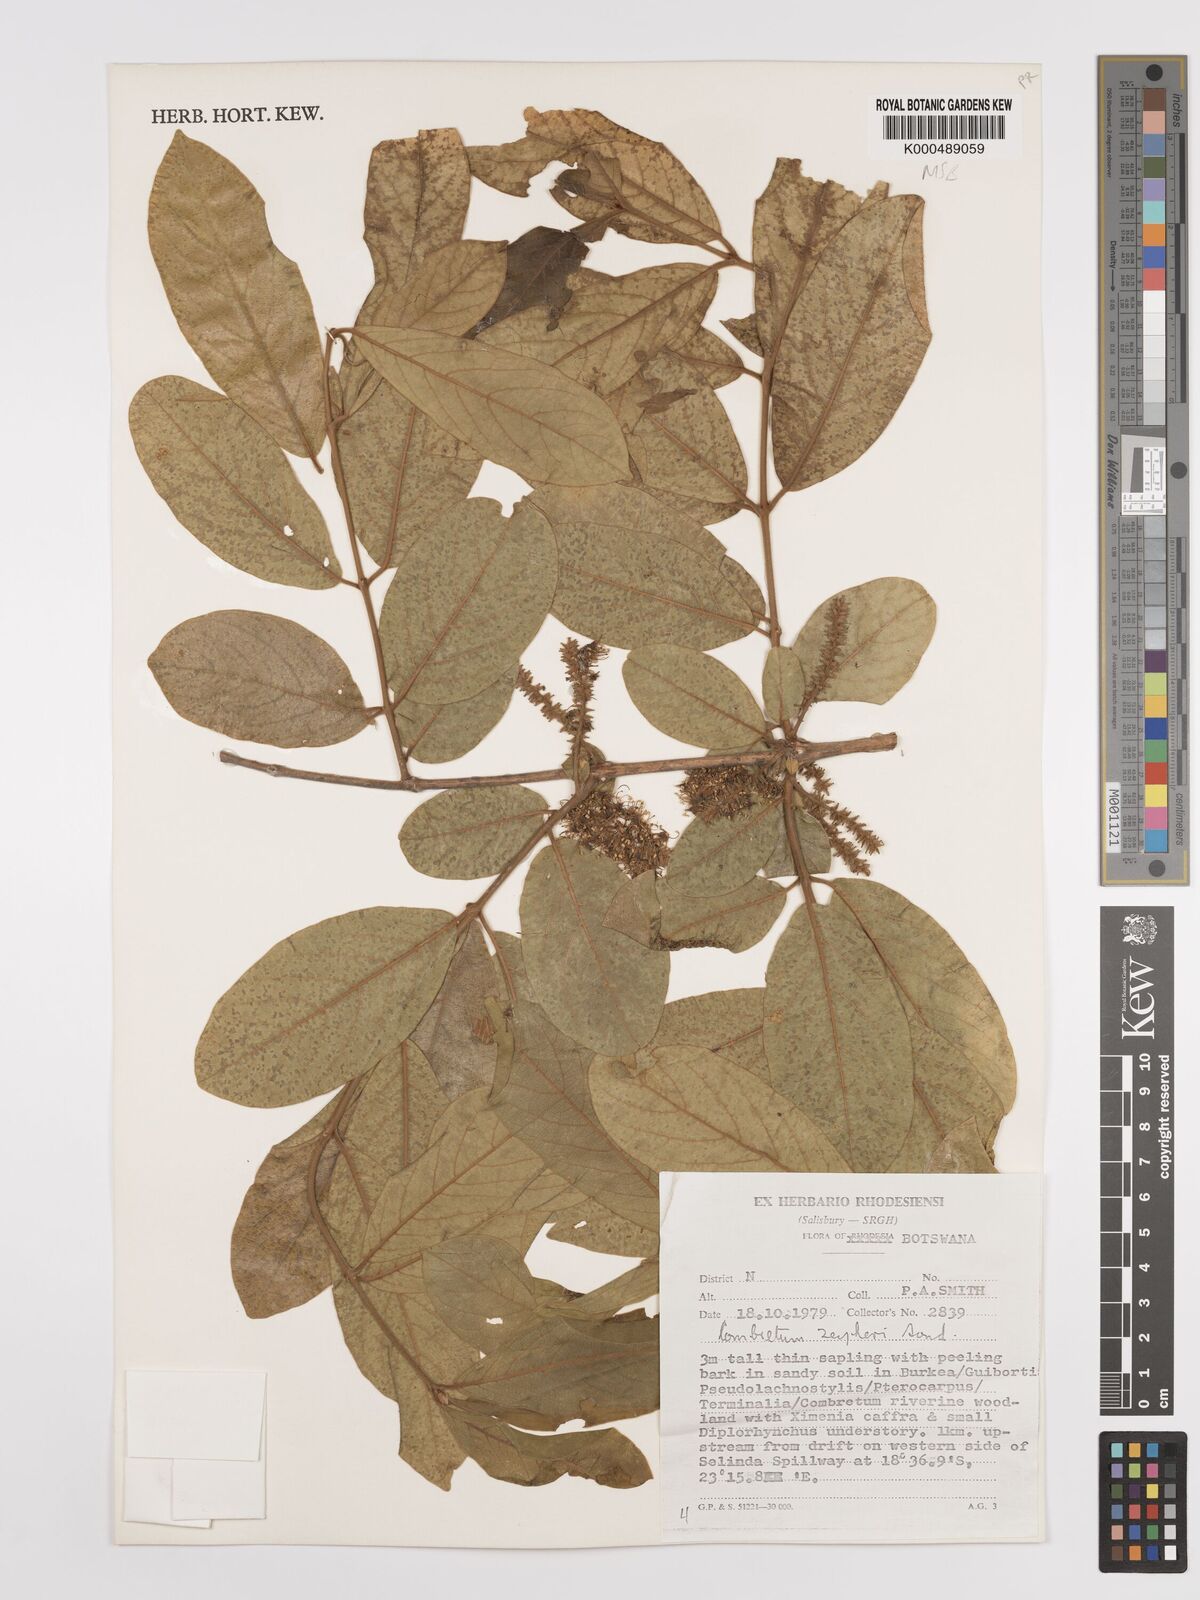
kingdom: Plantae
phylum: Tracheophyta
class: Magnoliopsida
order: Myrtales
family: Combretaceae
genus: Combretum
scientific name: Combretum zeyheri
